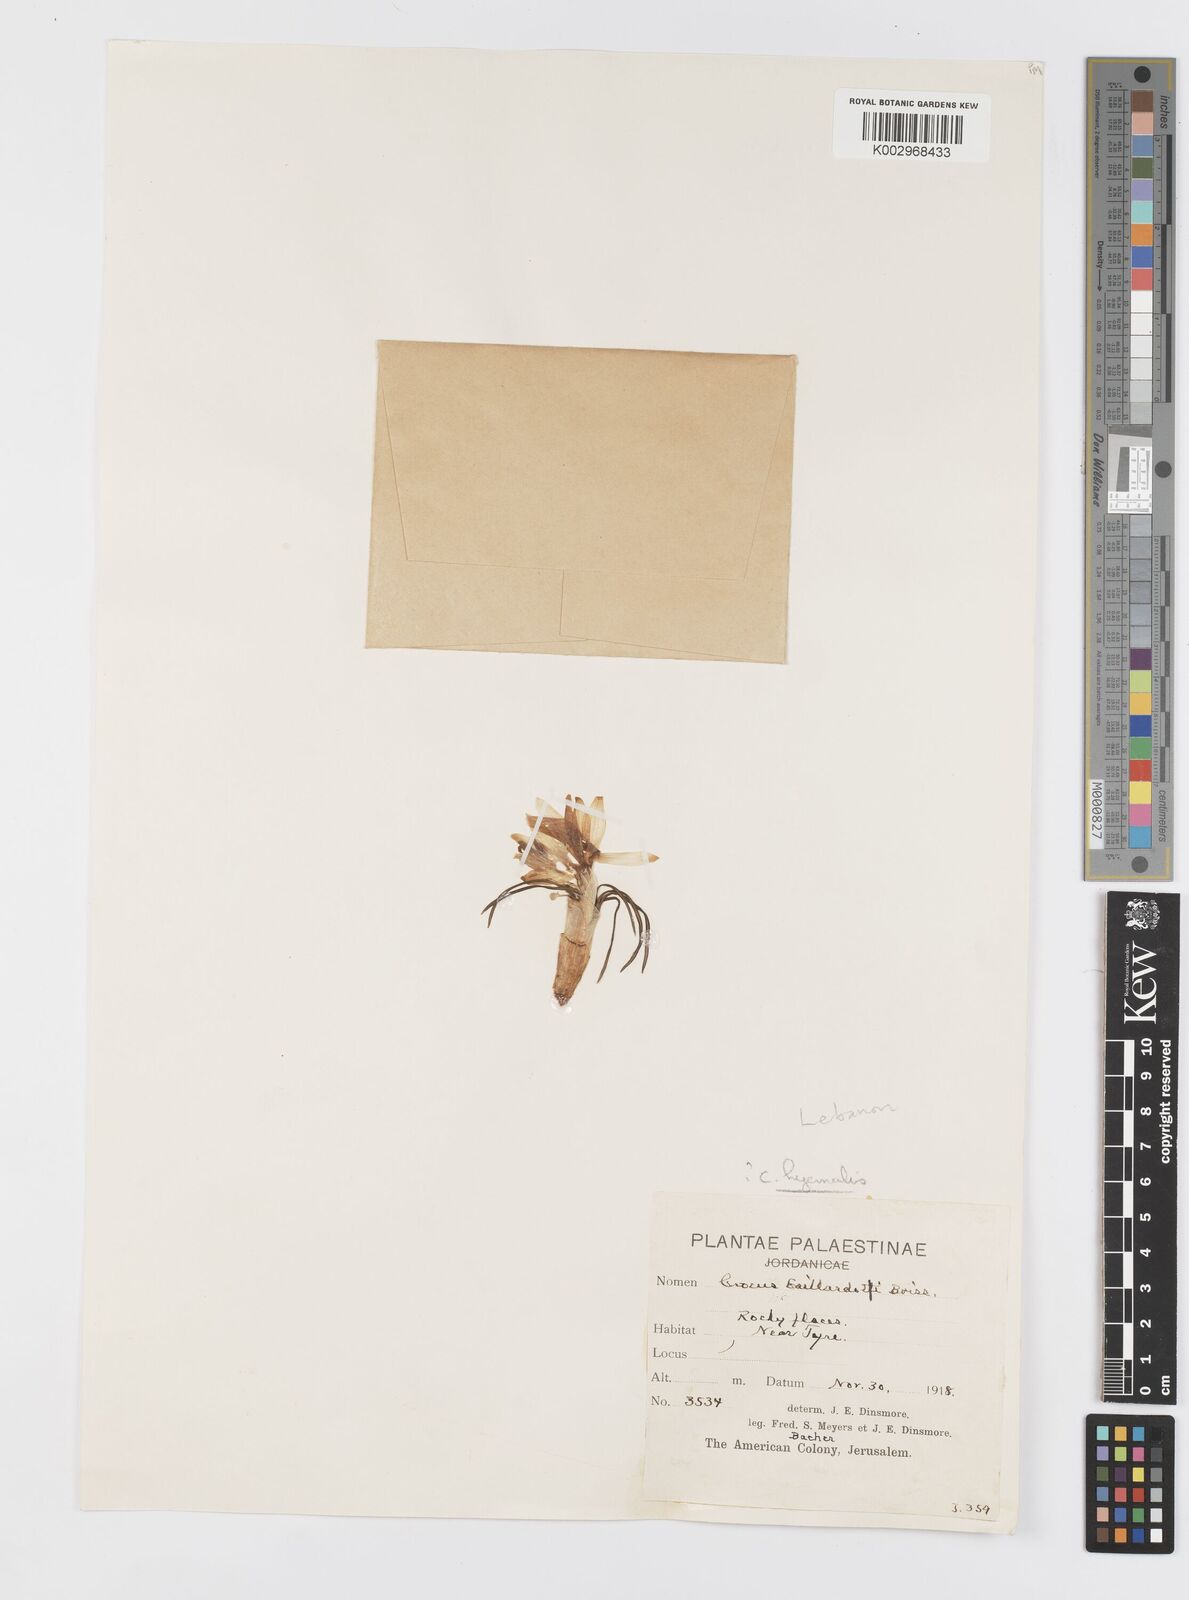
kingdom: Plantae
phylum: Tracheophyta
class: Liliopsida
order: Asparagales
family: Iridaceae
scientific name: Iridaceae
